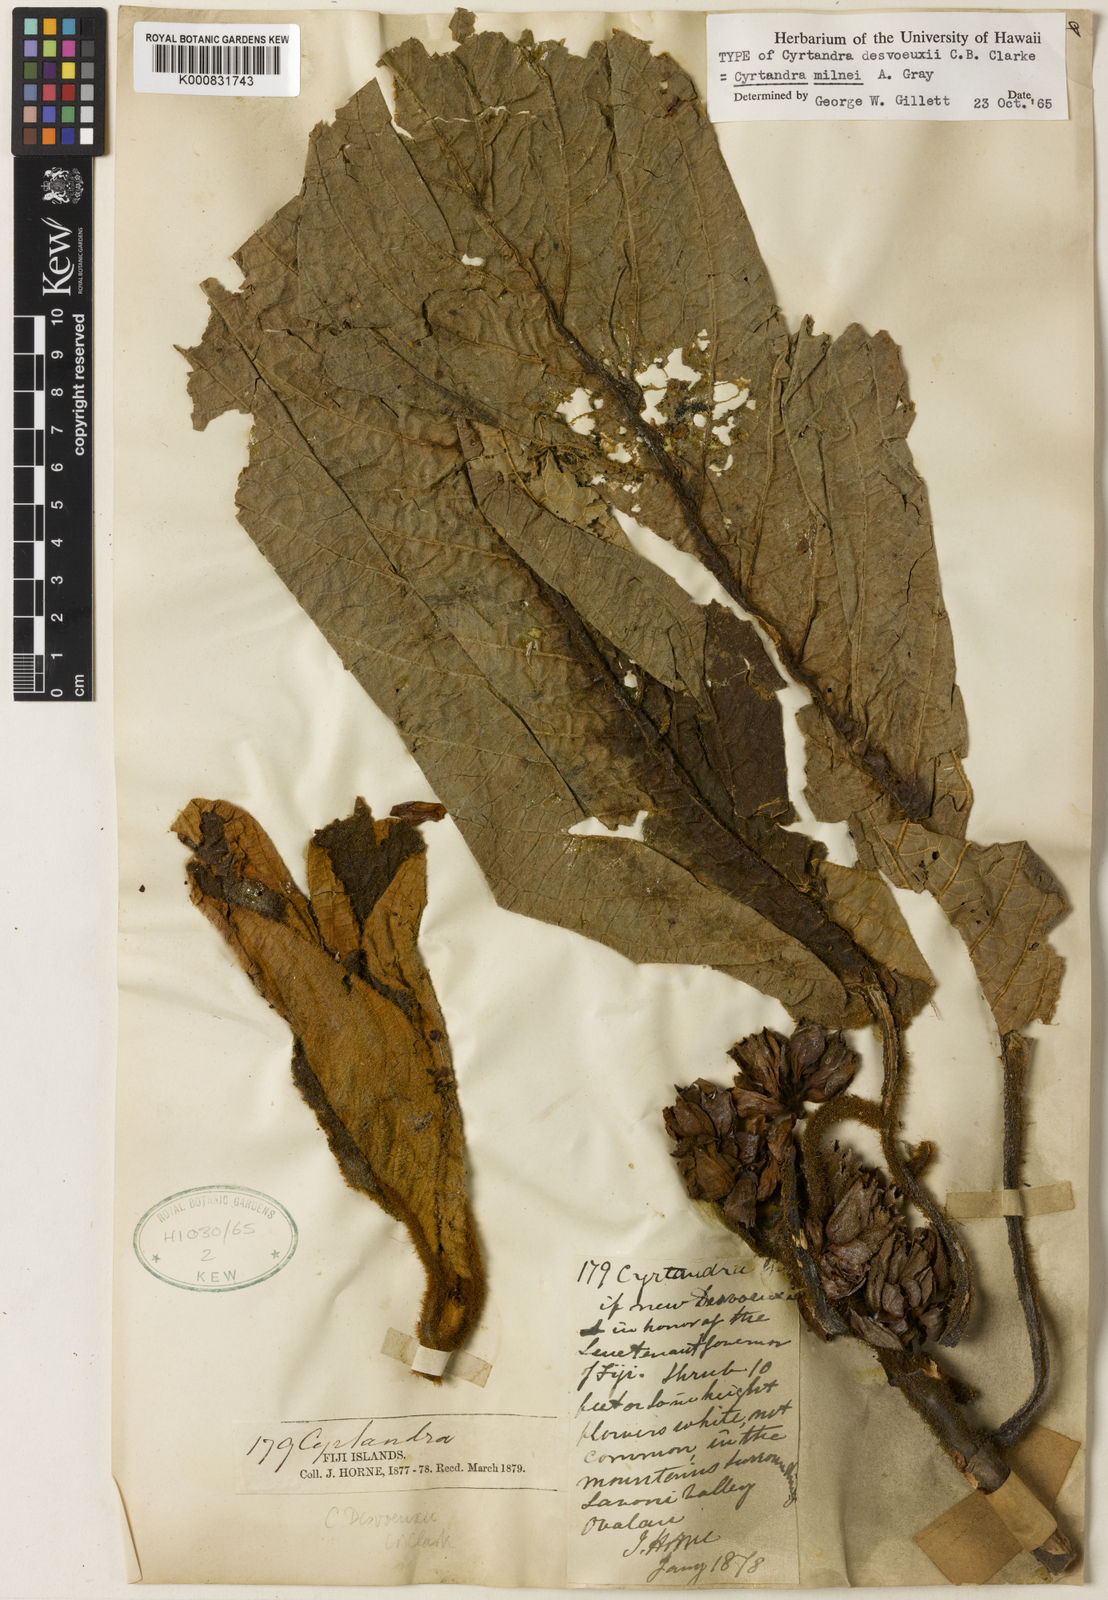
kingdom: Plantae
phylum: Tracheophyta
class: Magnoliopsida
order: Lamiales
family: Gesneriaceae
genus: Cyrtandra
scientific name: Cyrtandra milnei
